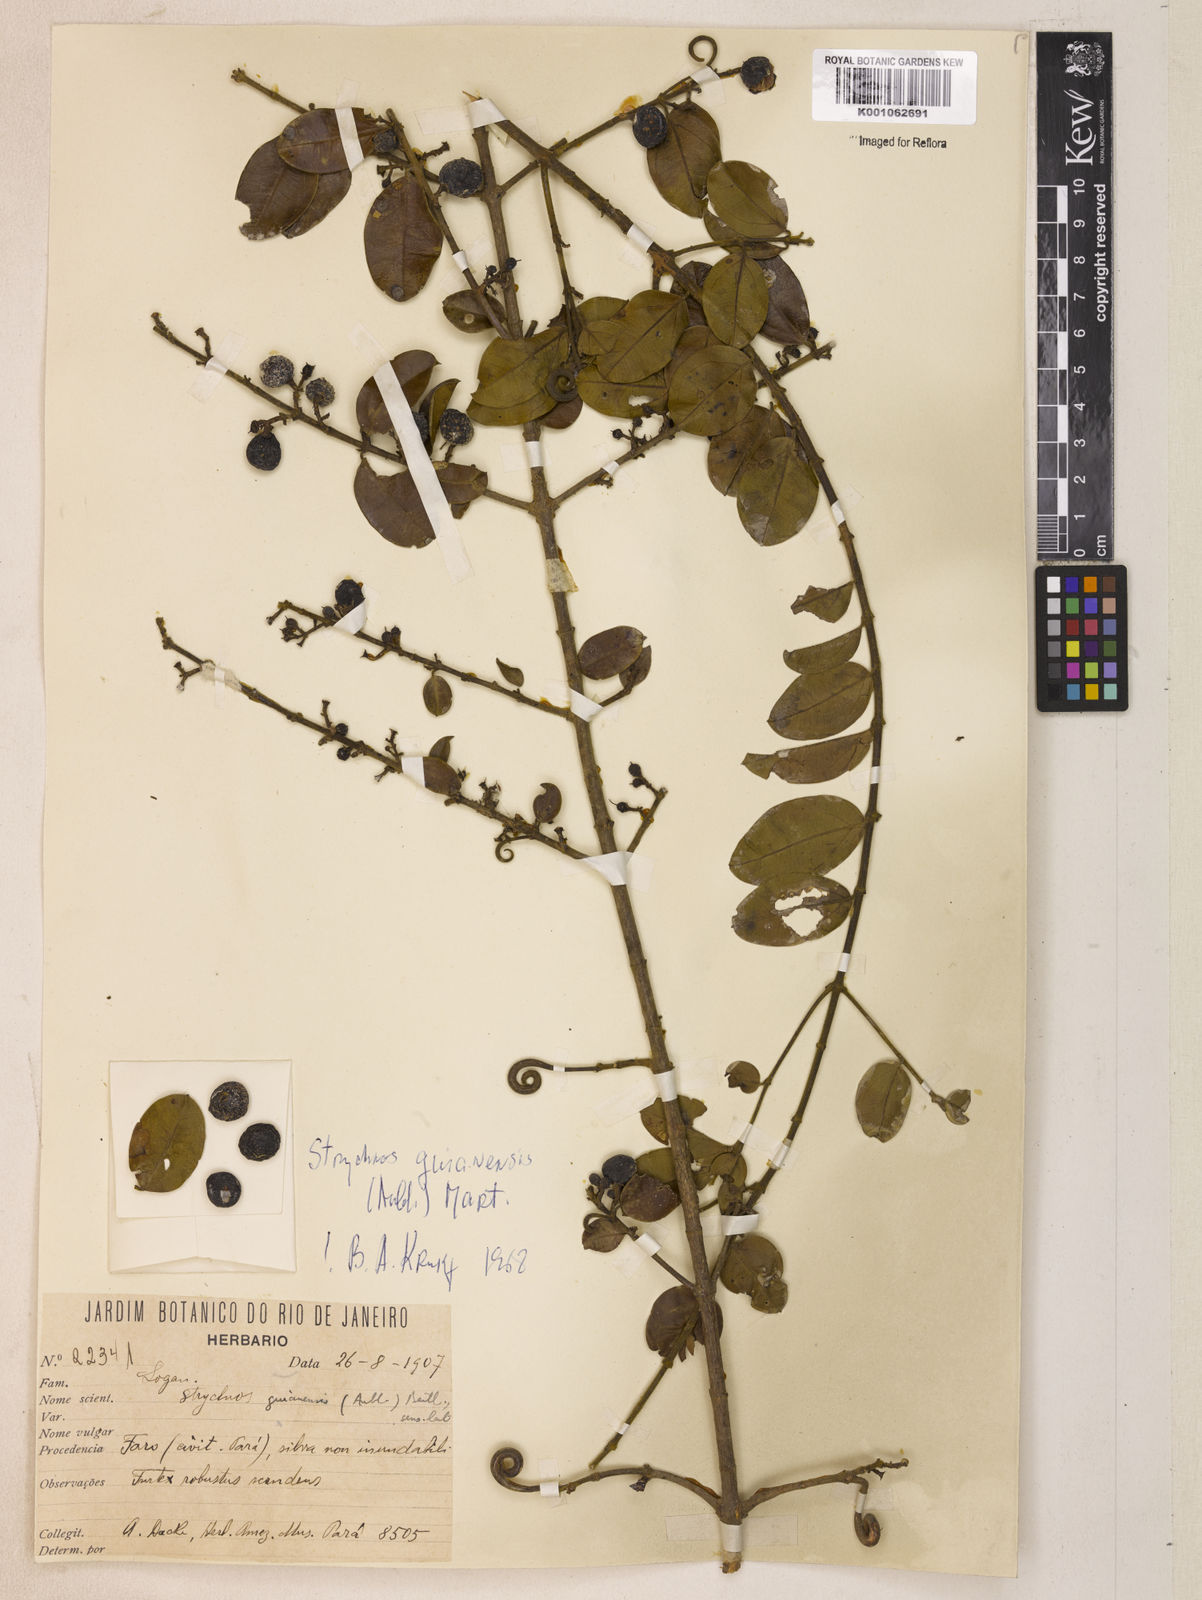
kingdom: Plantae
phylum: Tracheophyta
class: Magnoliopsida
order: Gentianales
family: Loganiaceae
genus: Strychnos
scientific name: Strychnos guianensis
